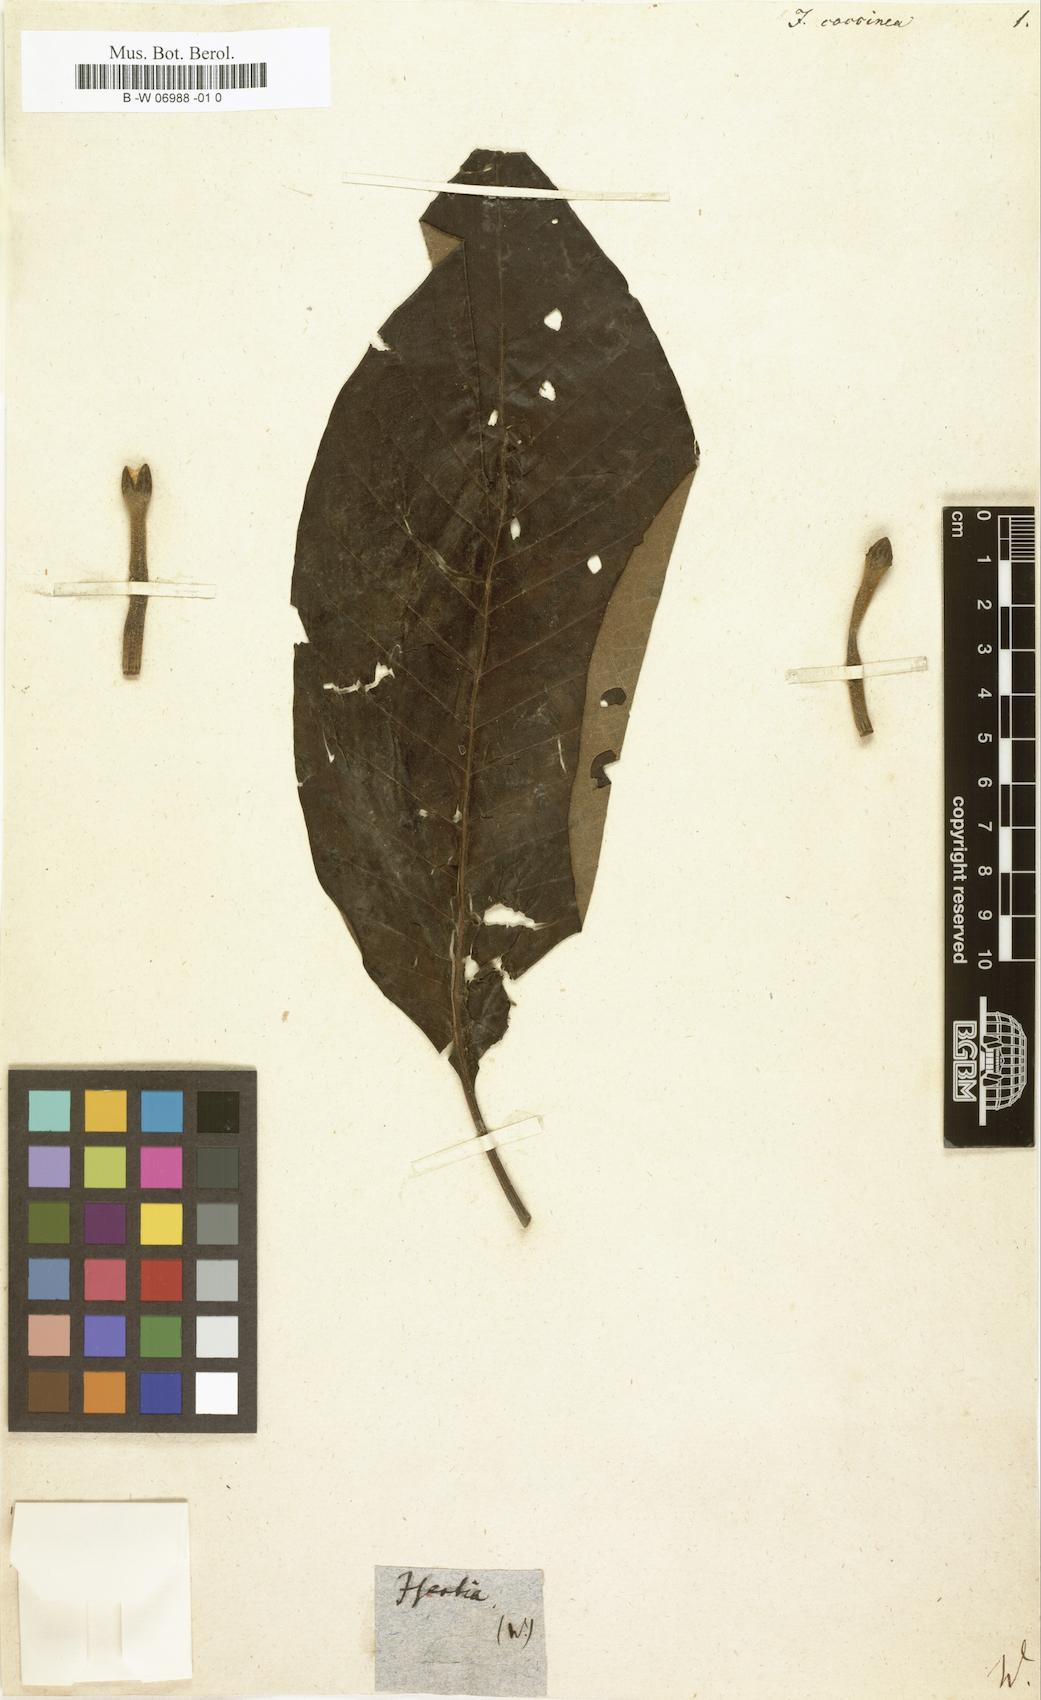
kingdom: Plantae
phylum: Tracheophyta
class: Magnoliopsida
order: Gentianales
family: Rubiaceae
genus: Isertia
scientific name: Isertia coccinea
